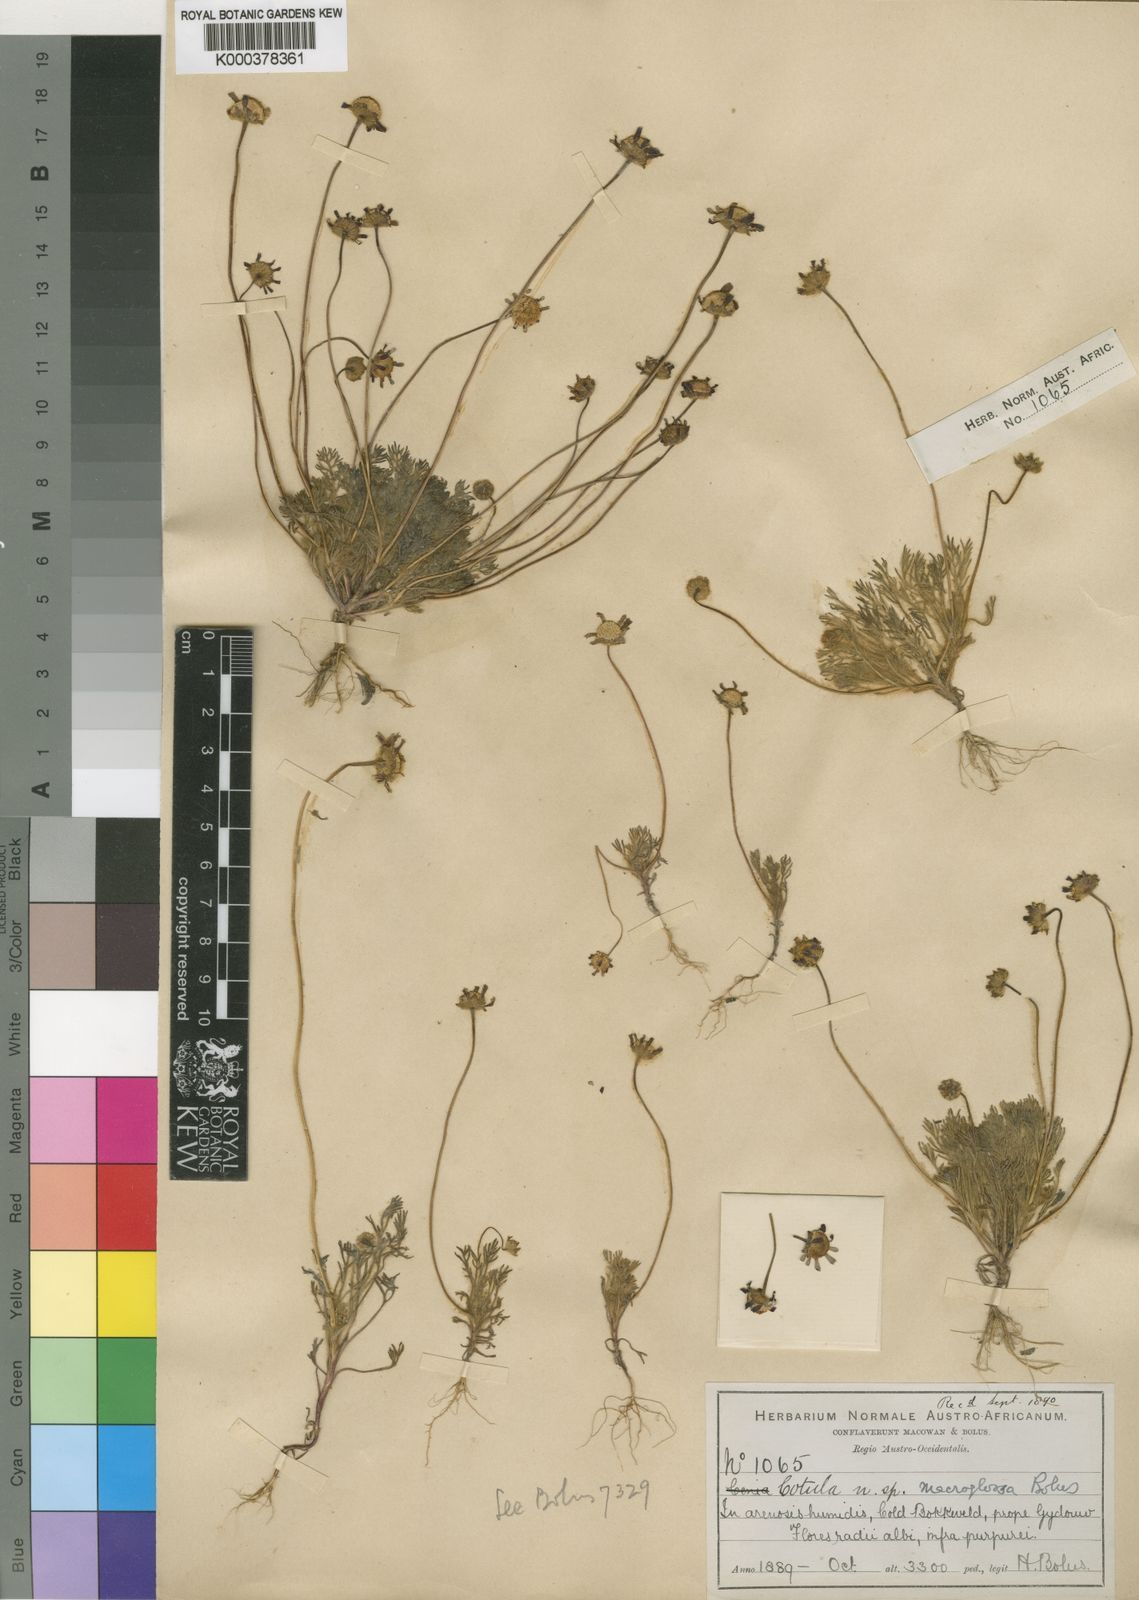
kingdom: Plantae
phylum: Tracheophyta
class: Magnoliopsida
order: Asterales
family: Asteraceae
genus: Cotula
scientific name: Cotula macroglossa
